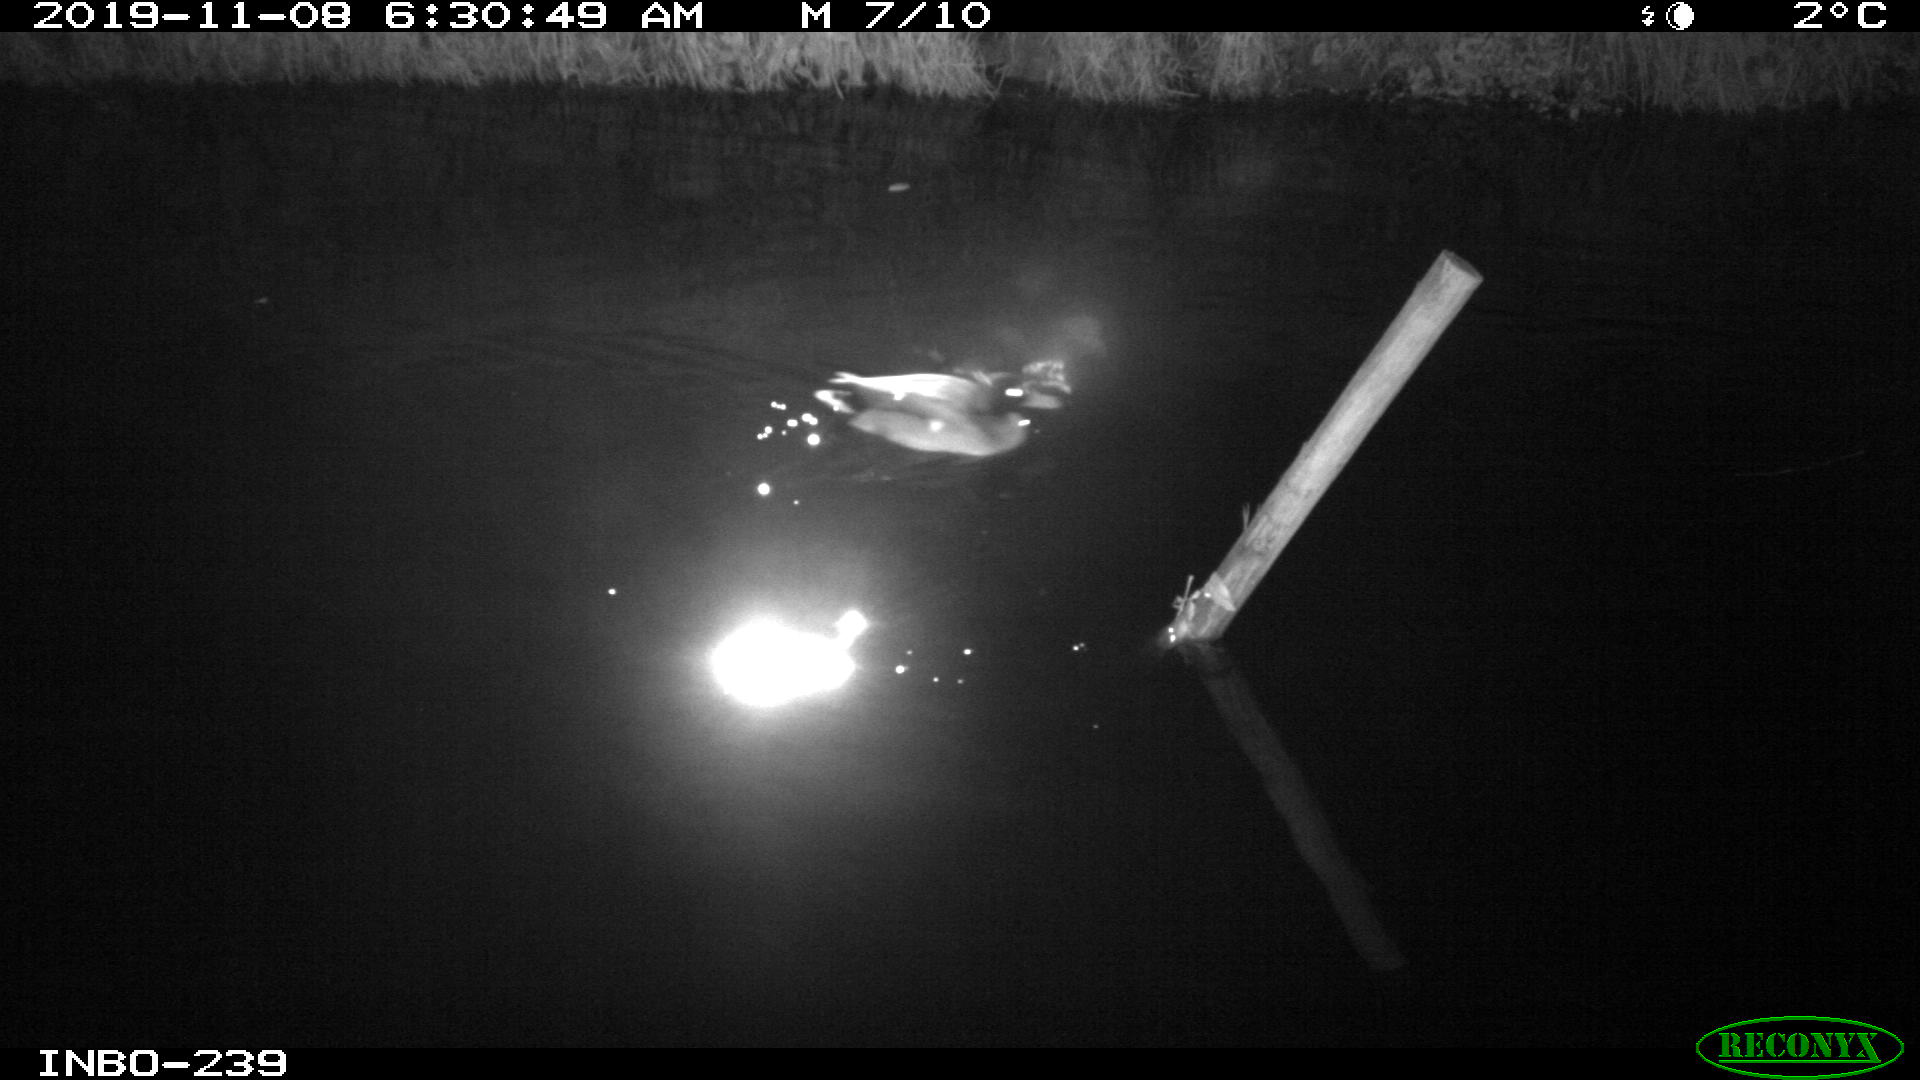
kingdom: Animalia
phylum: Chordata
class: Aves
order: Anseriformes
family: Anatidae
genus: Anas
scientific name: Anas platyrhynchos
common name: Mallard
